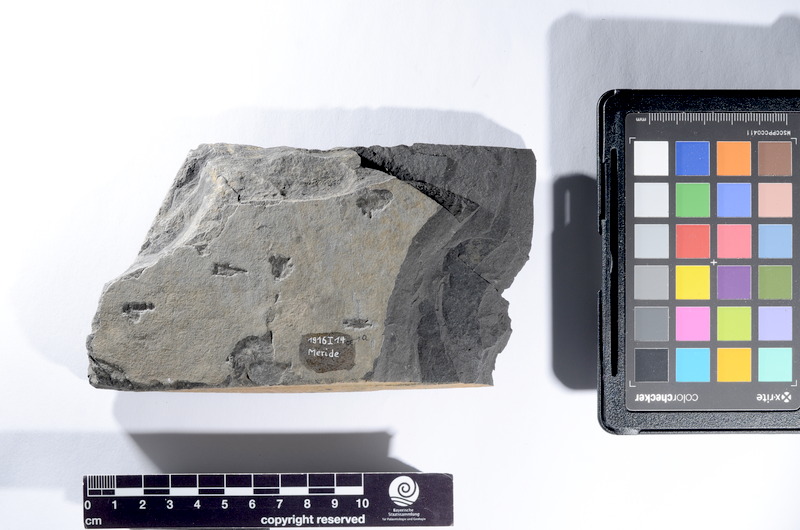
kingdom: Animalia
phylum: Chordata
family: Saurichthyidae
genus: Saurorhynchus
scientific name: Saurorhynchus
